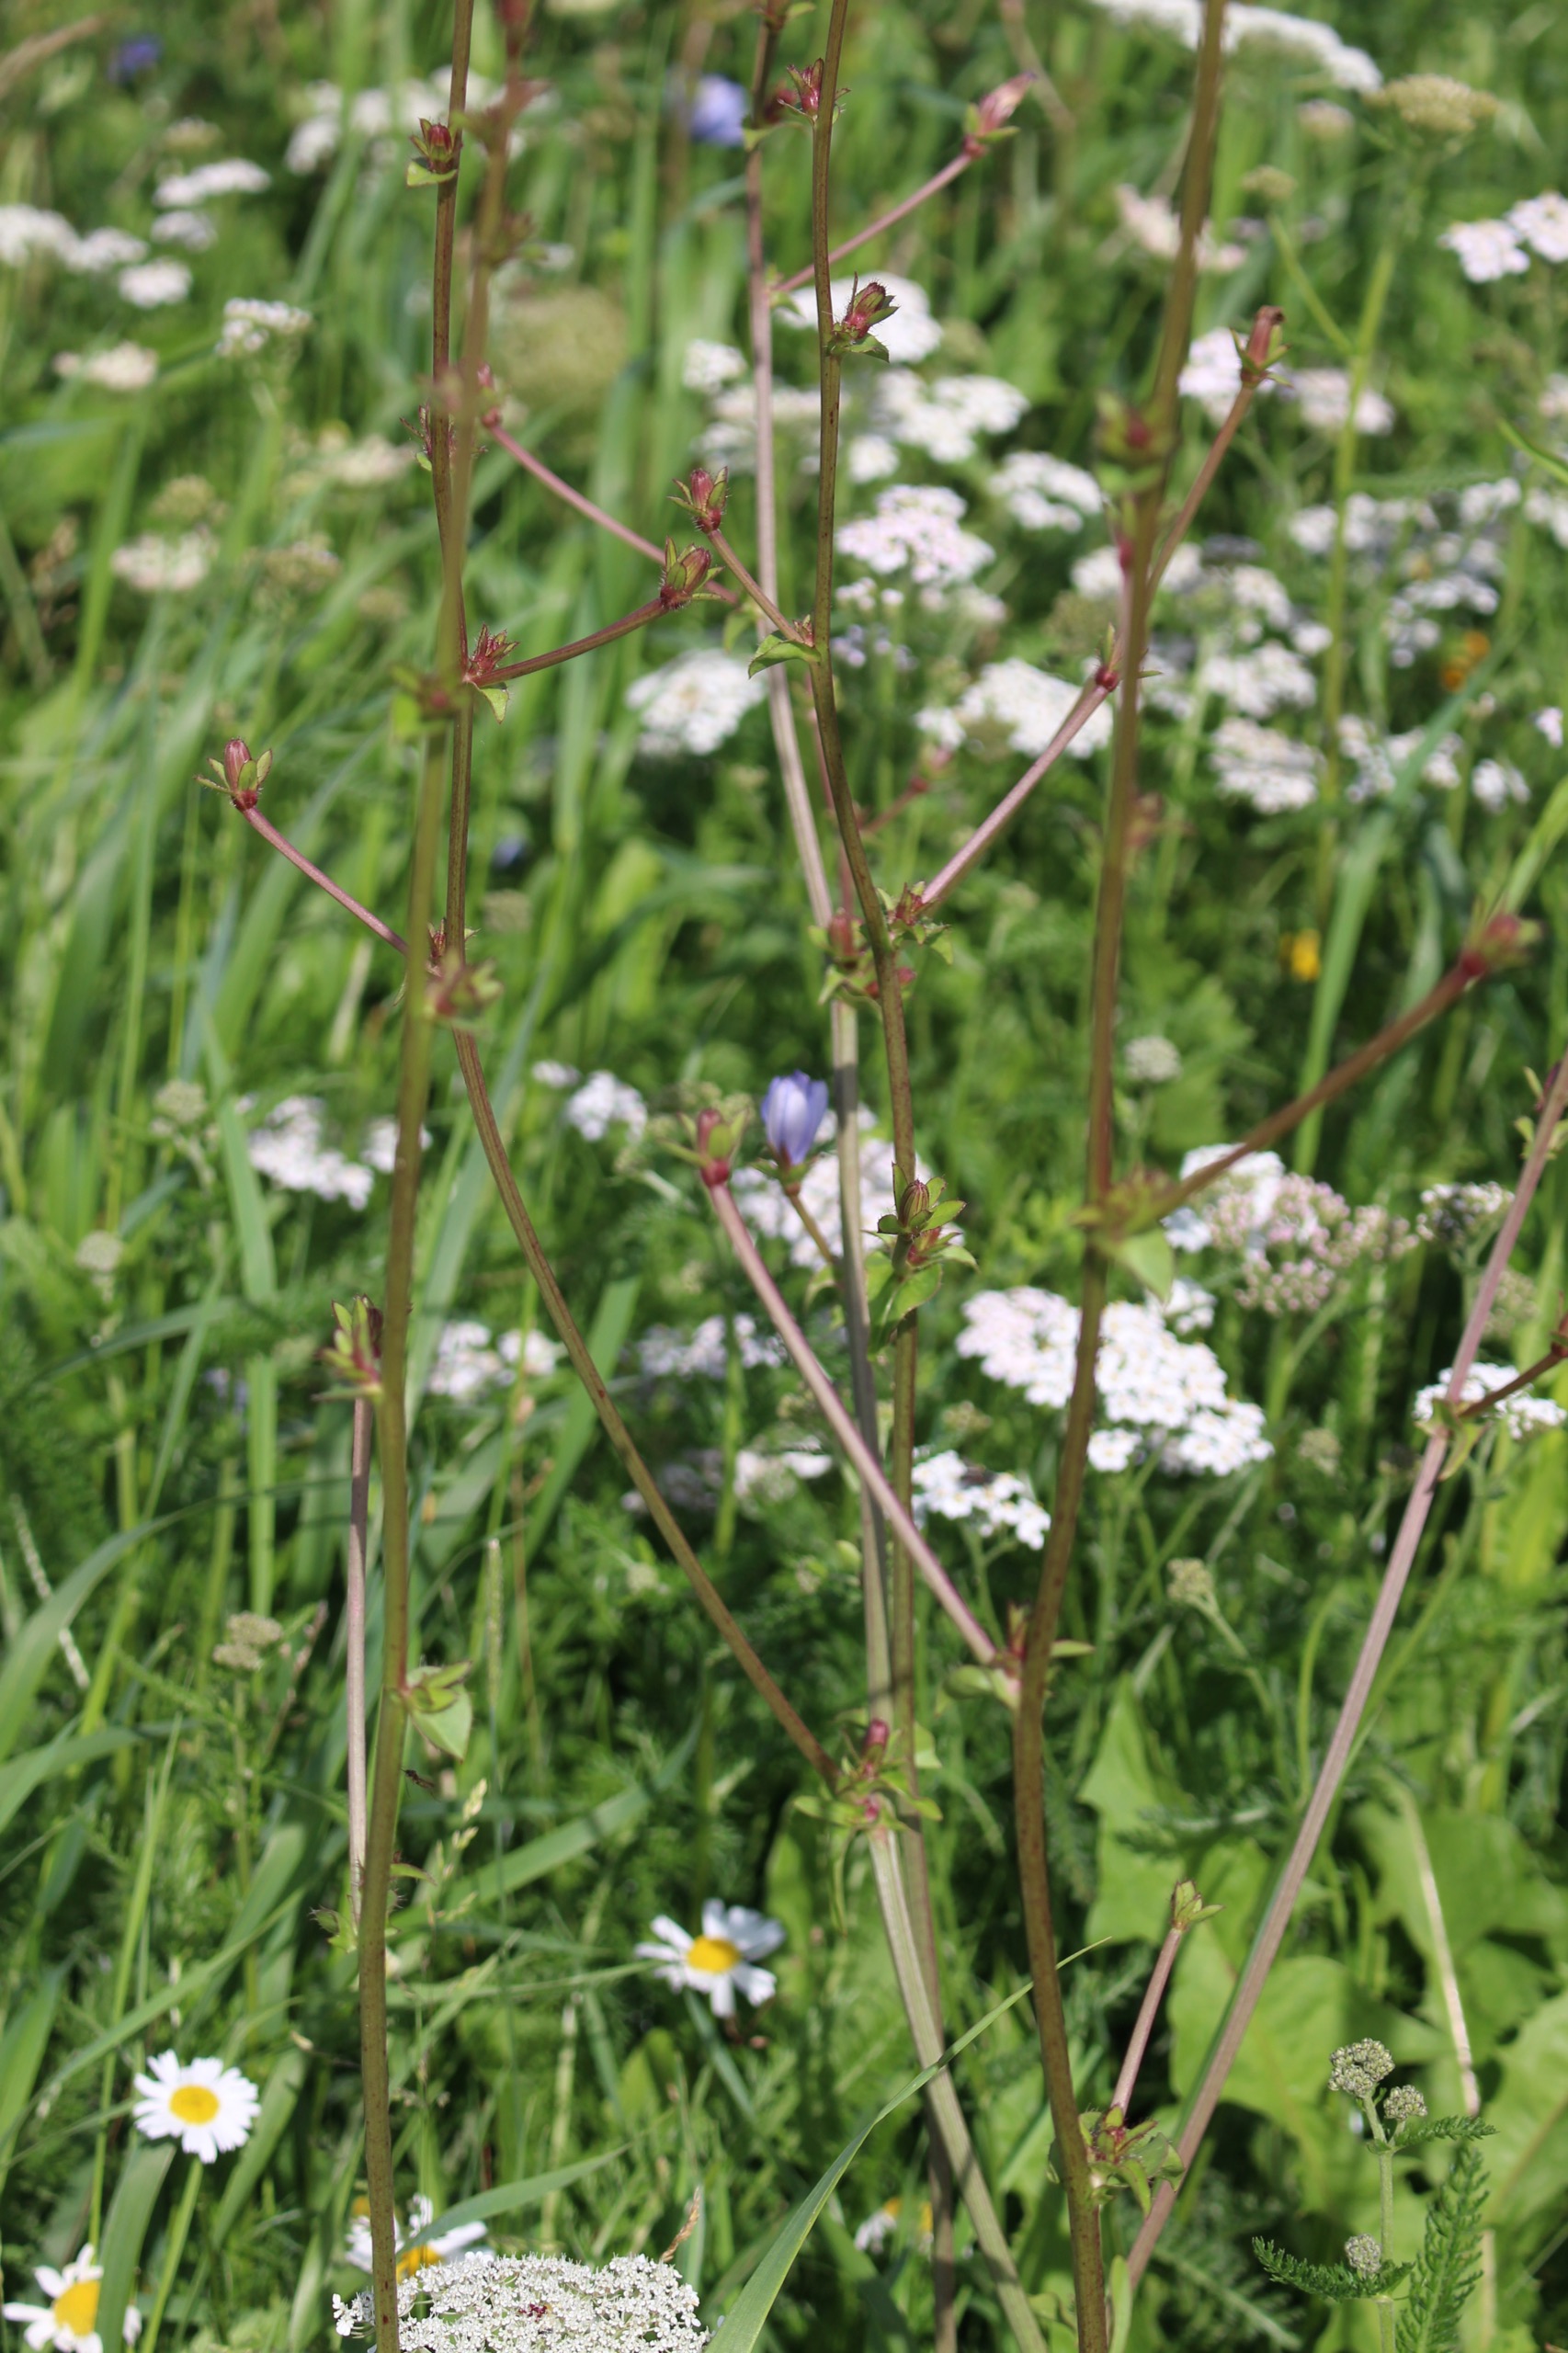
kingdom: Plantae
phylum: Tracheophyta
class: Magnoliopsida
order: Asterales
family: Asteraceae
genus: Cichorium
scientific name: Cichorium intybus
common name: Cikorie
